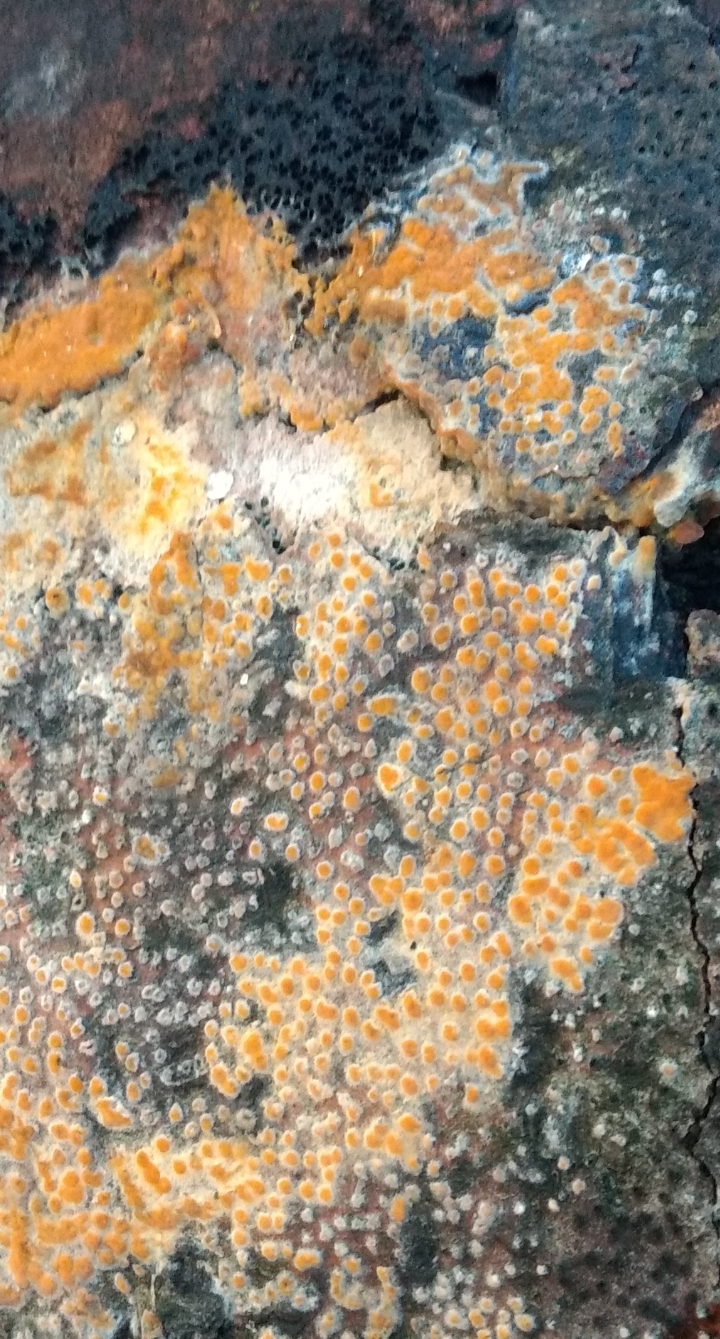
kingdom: Fungi
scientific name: Fungi
